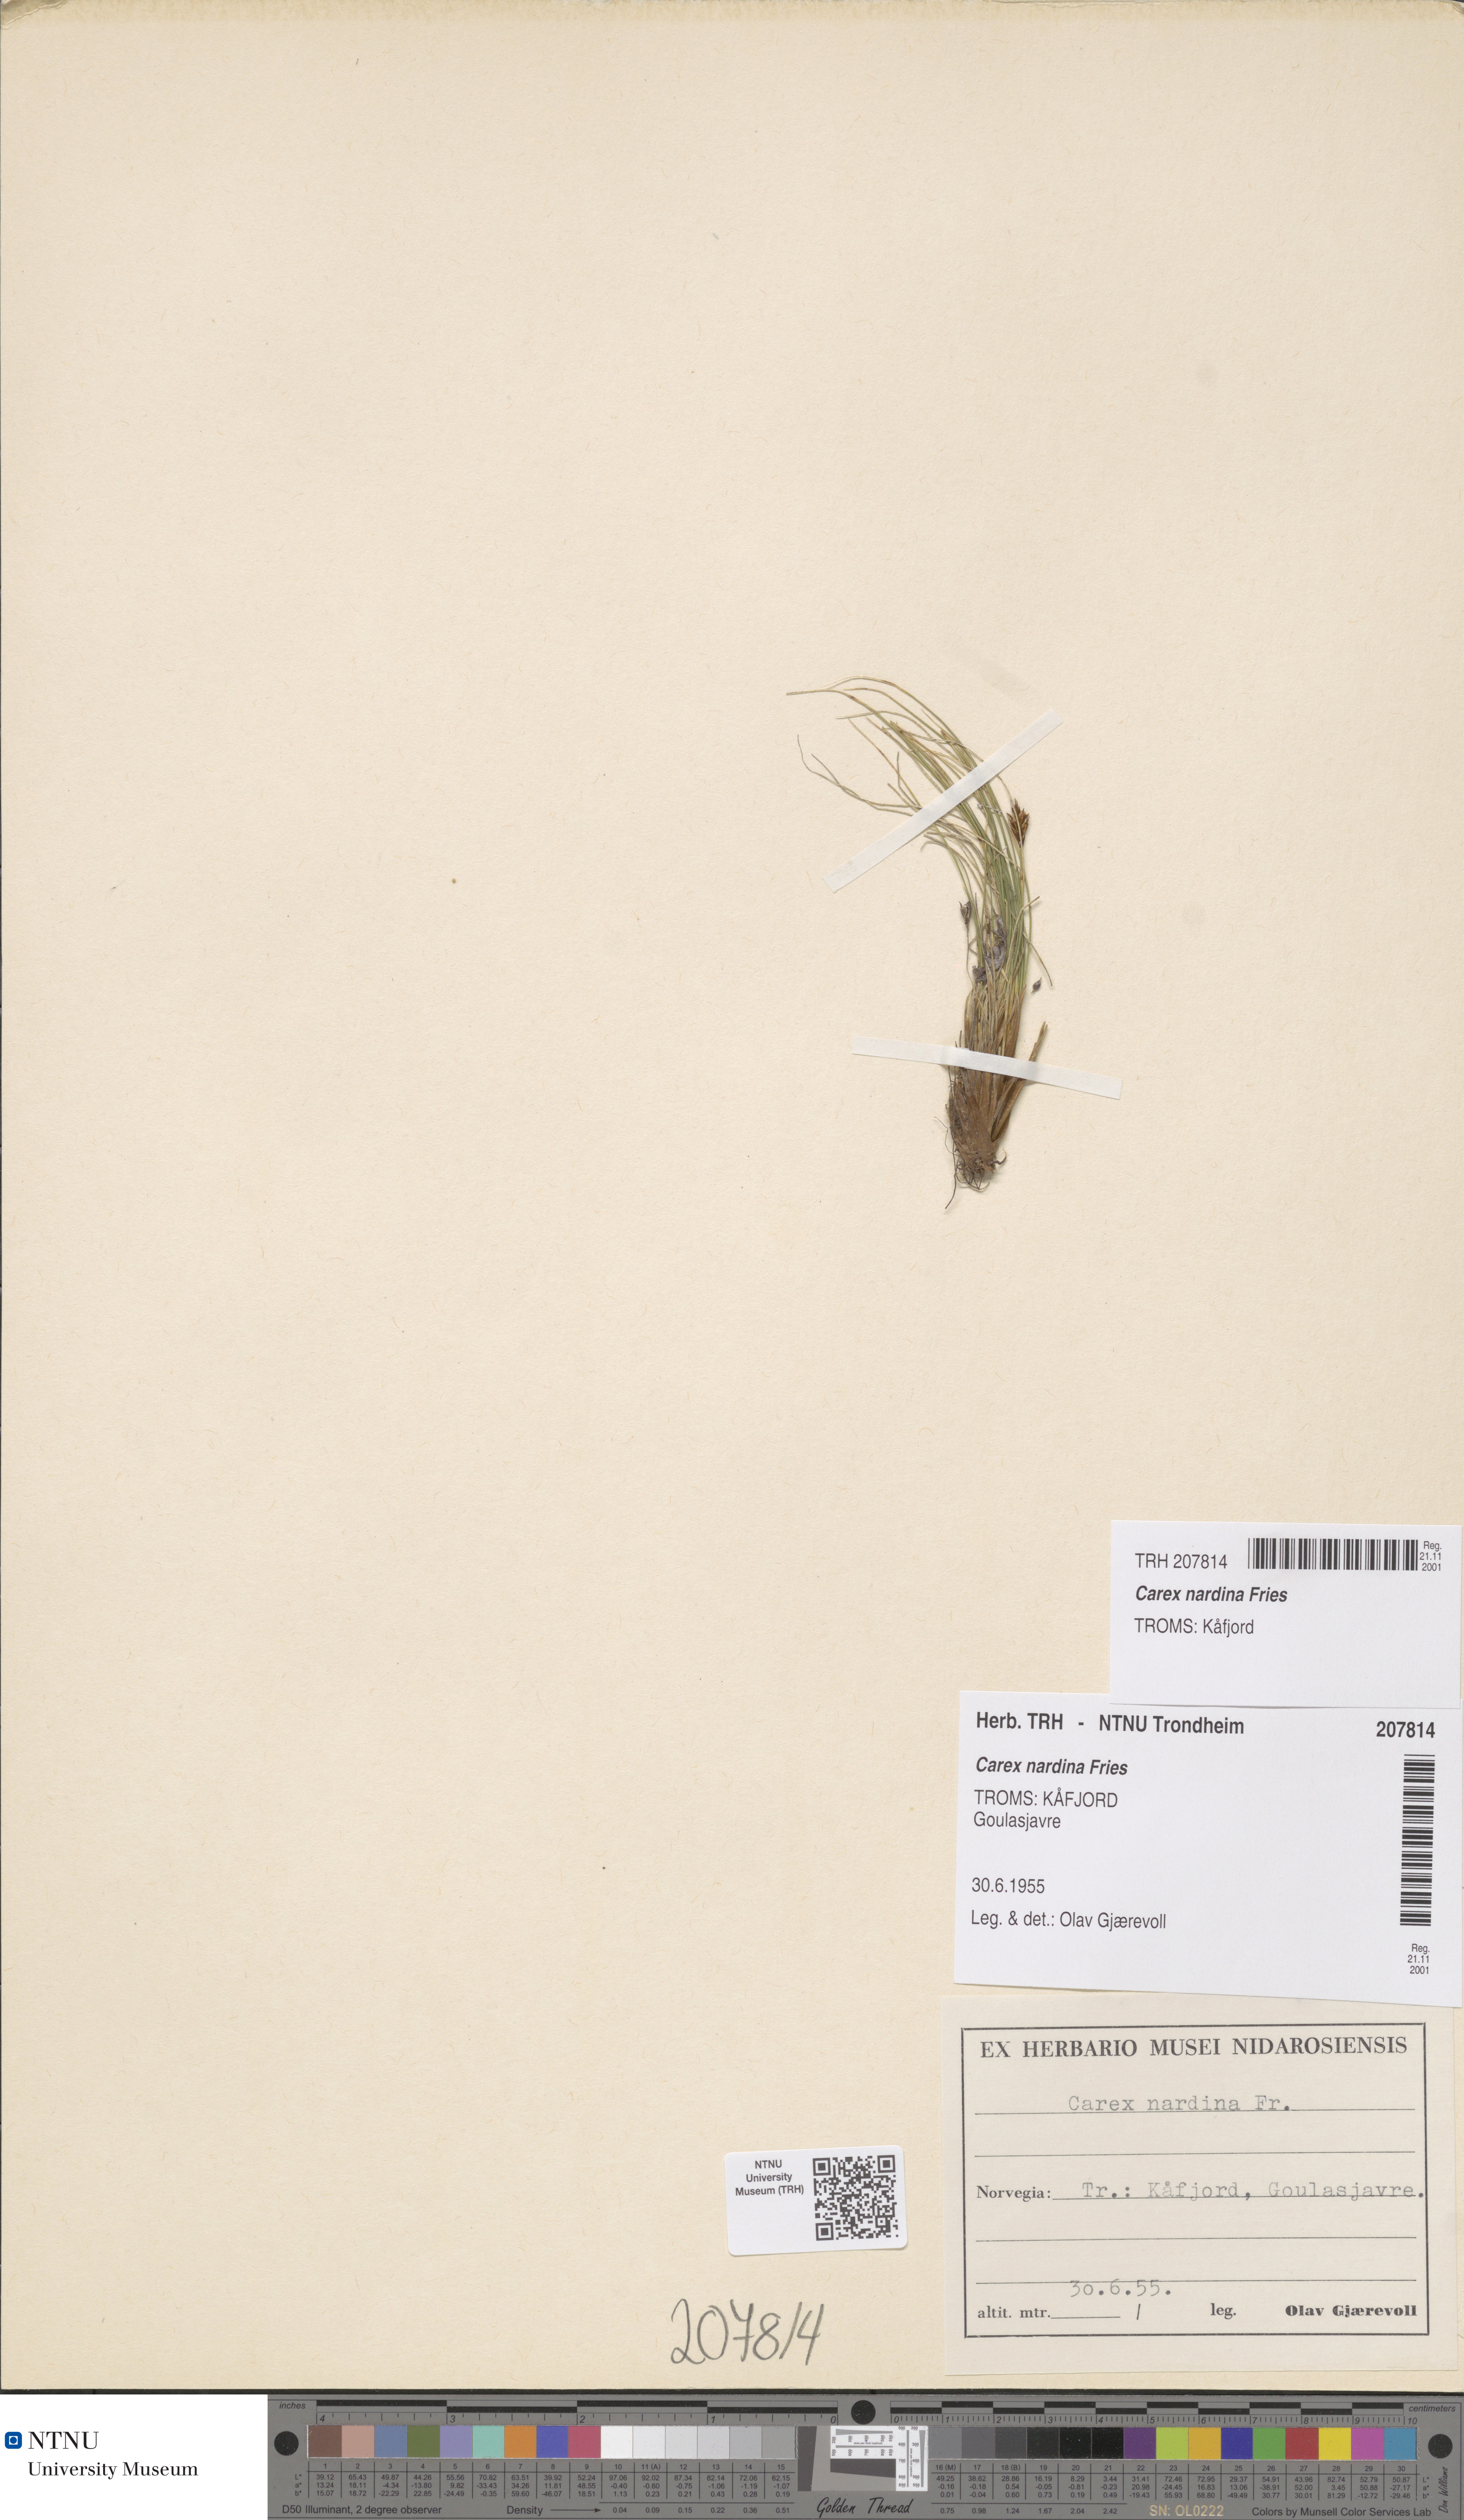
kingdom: Plantae
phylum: Tracheophyta
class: Liliopsida
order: Poales
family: Cyperaceae
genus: Carex
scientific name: Carex nardina
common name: Nard sedge
